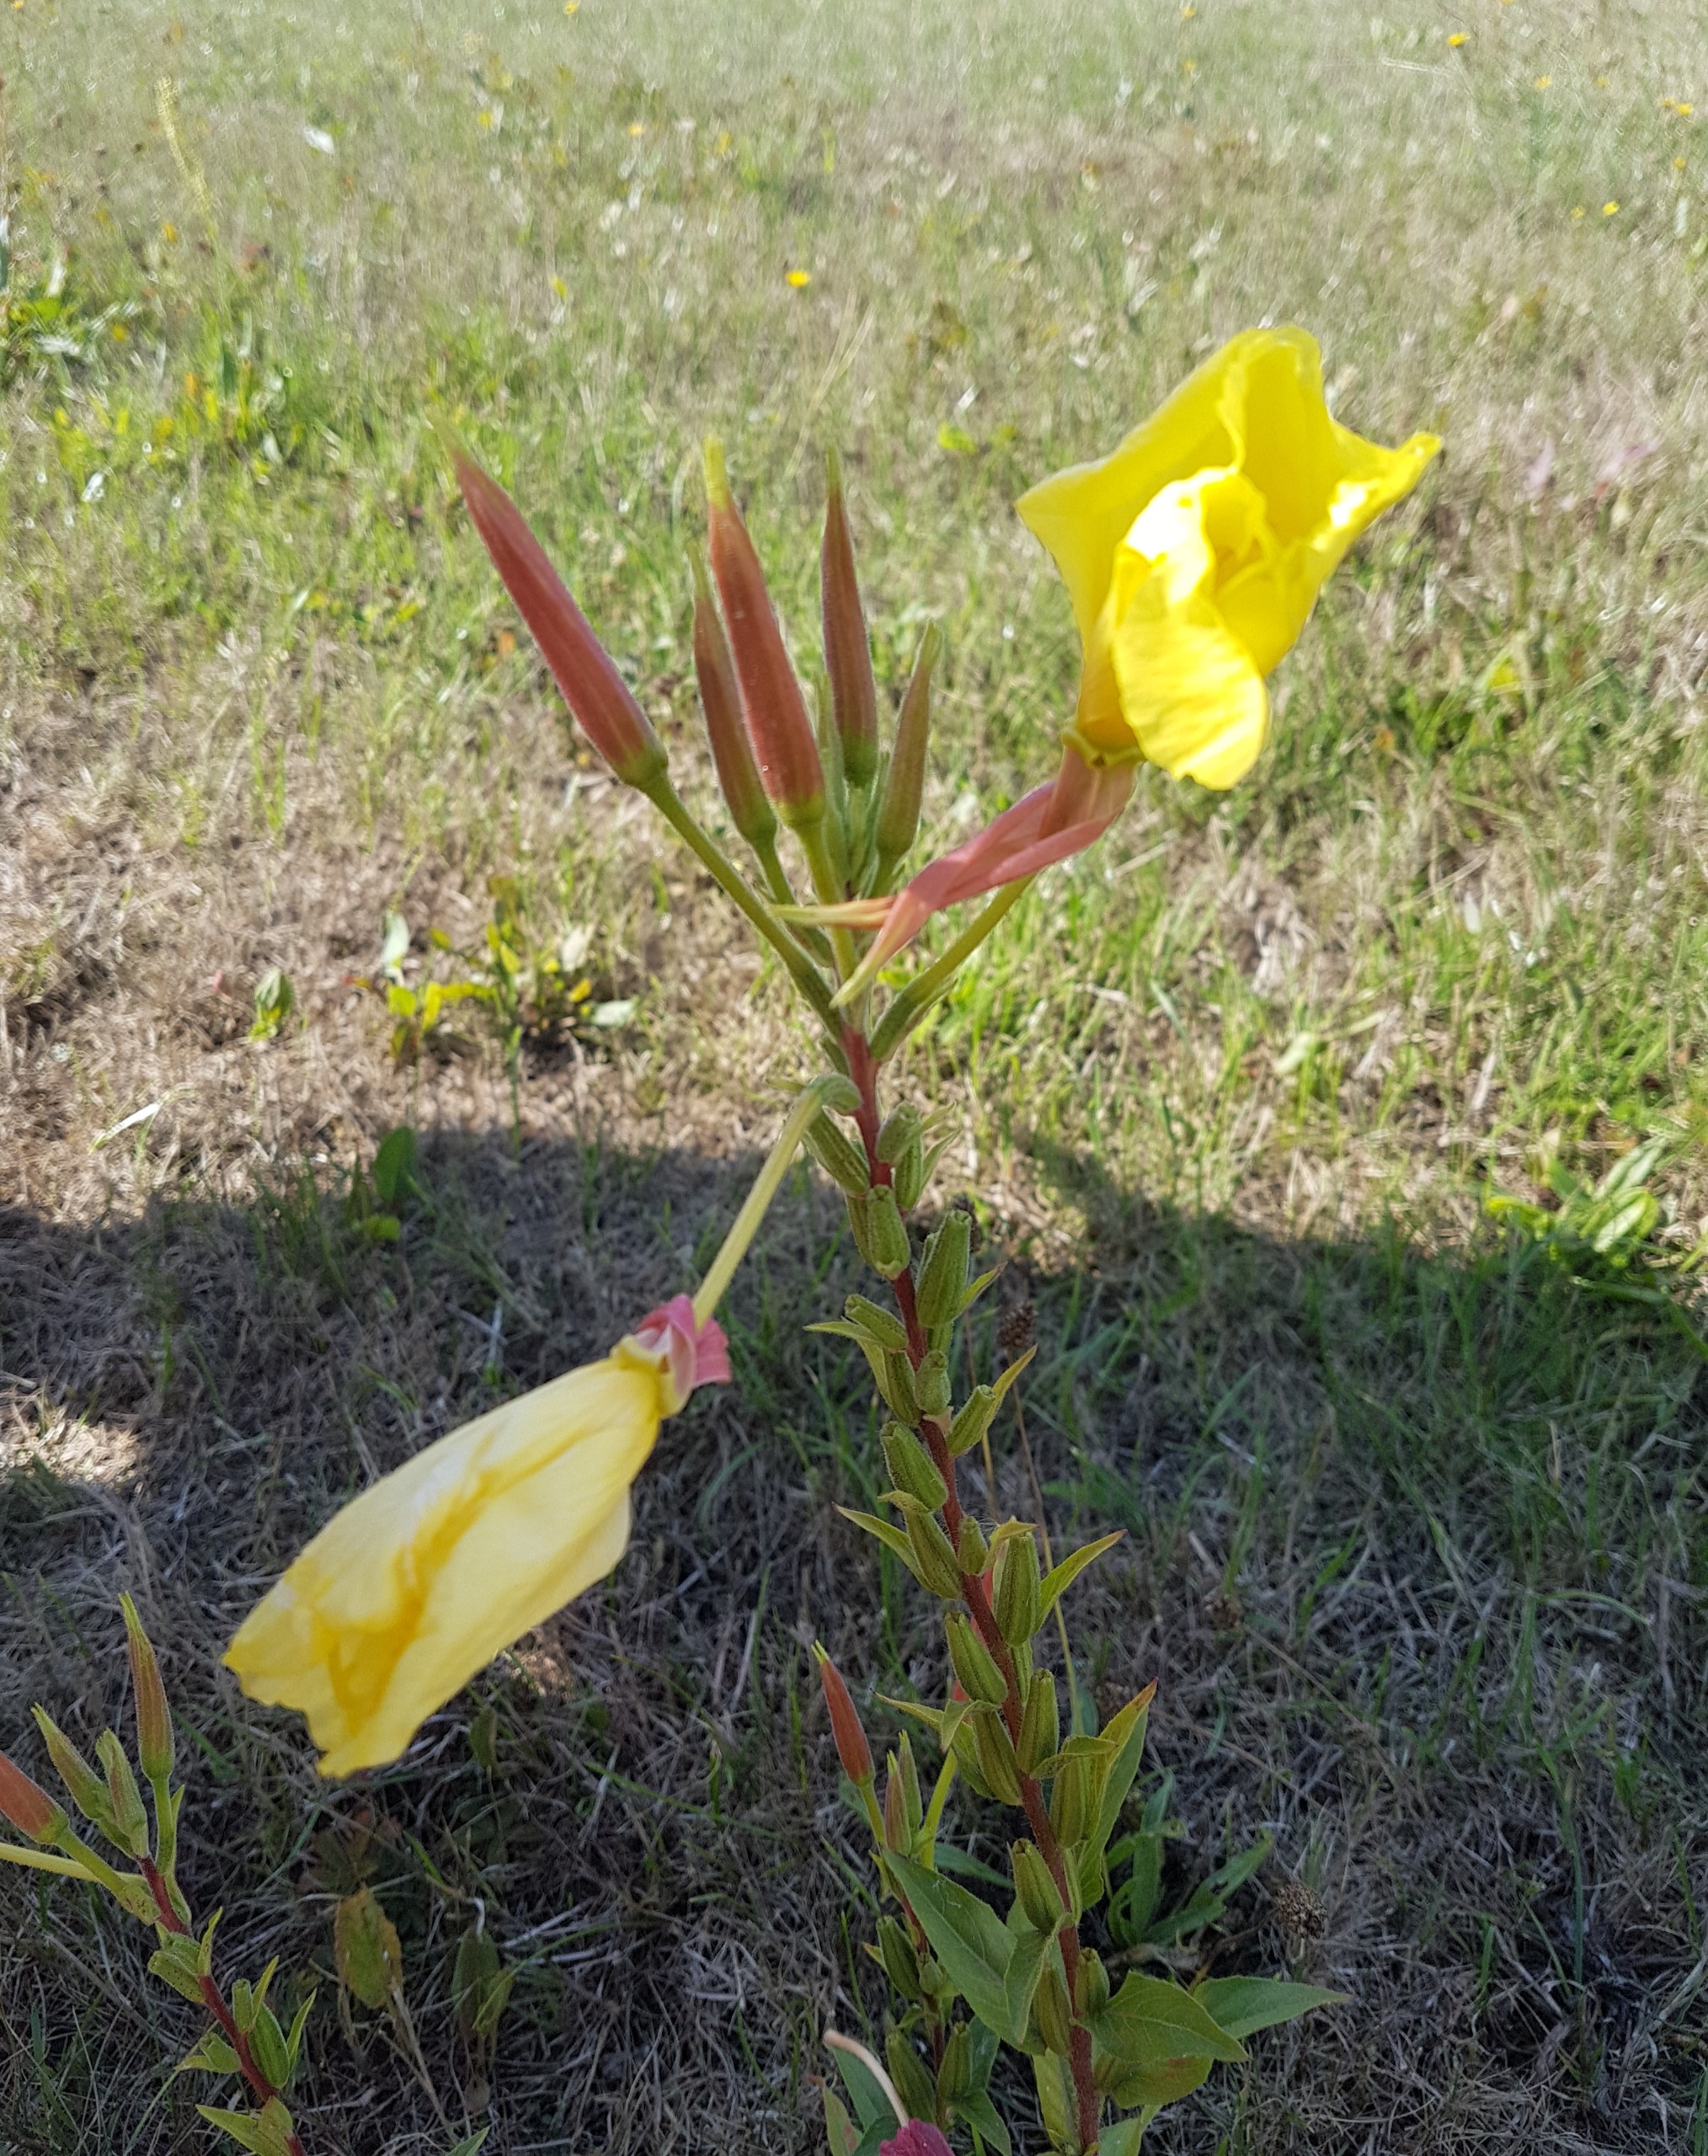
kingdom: Plantae
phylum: Tracheophyta
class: Magnoliopsida
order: Myrtales
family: Onagraceae
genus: Oenothera
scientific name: Oenothera glazioviana
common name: Kæmpe-natlys
